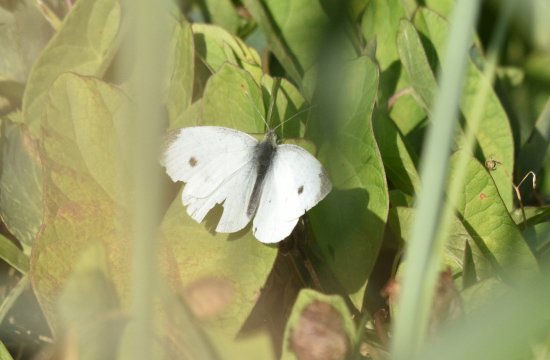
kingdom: Animalia
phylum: Arthropoda
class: Insecta
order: Lepidoptera
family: Pieridae
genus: Pieris
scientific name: Pieris rapae
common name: Cabbage White
